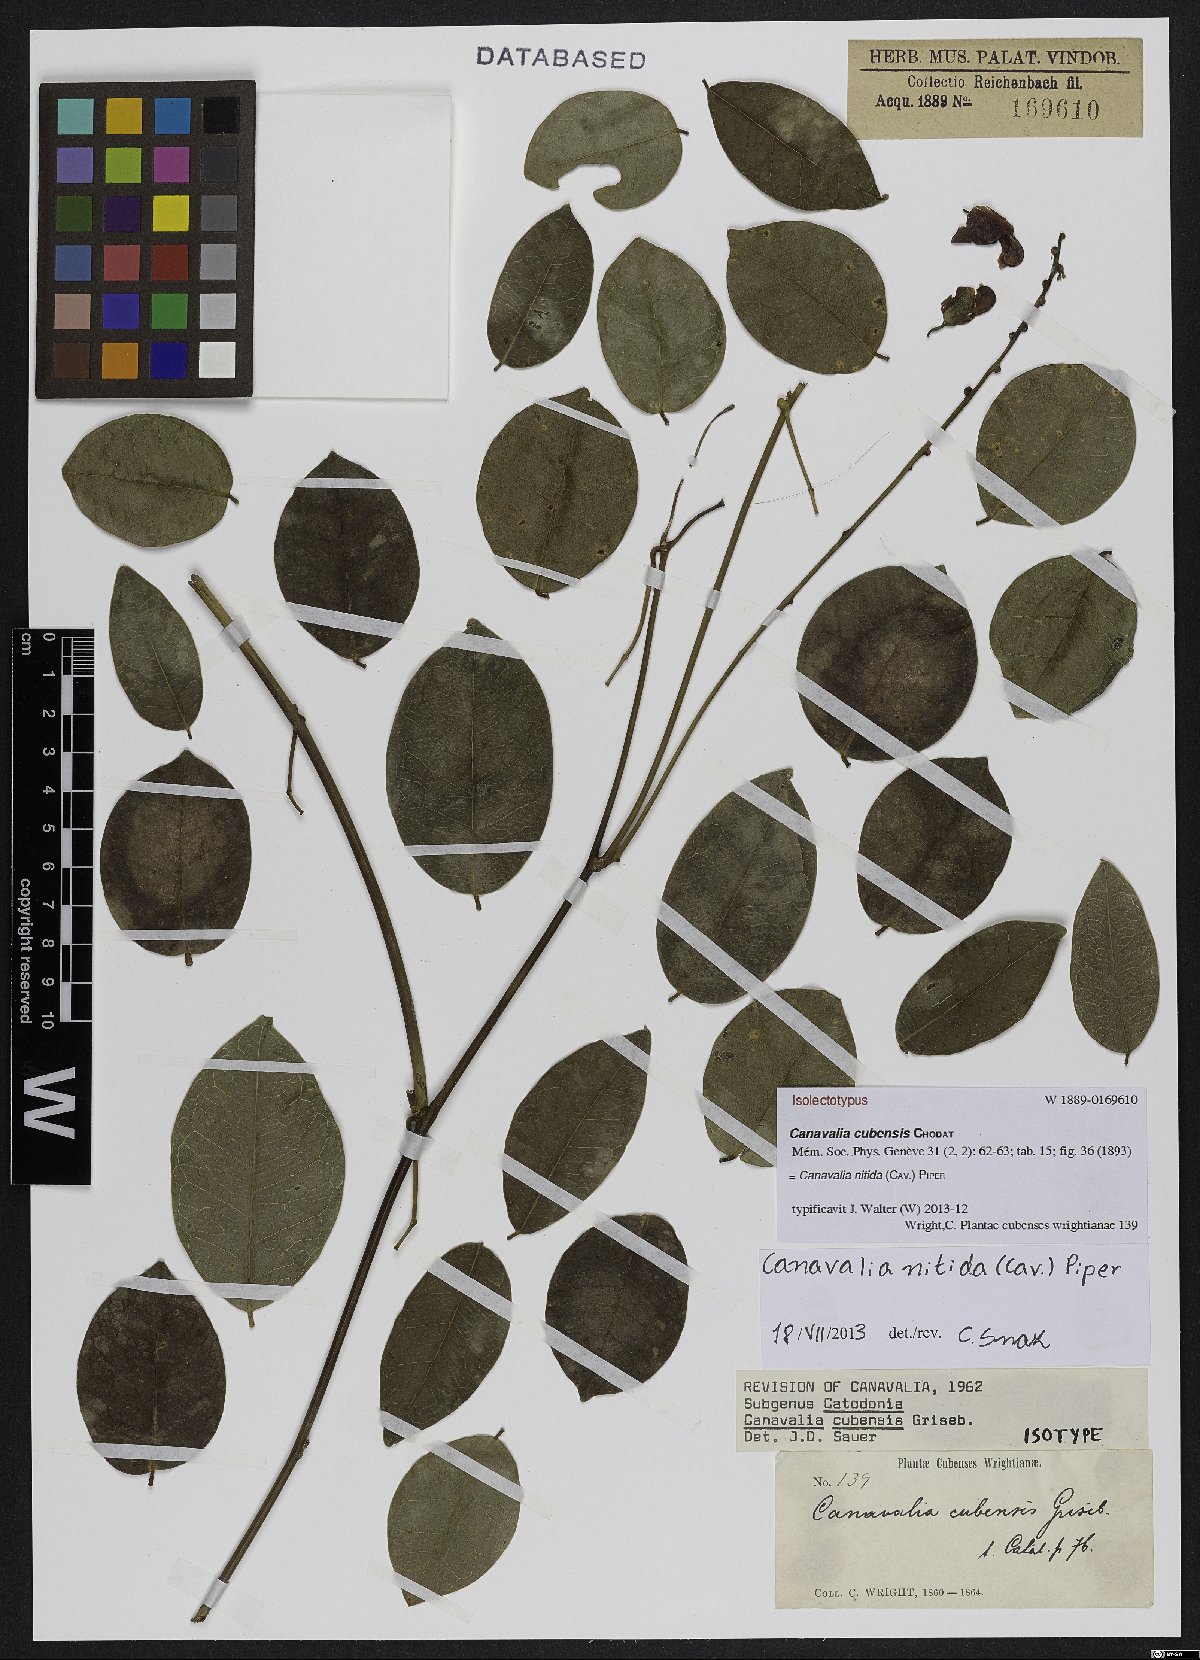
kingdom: Plantae
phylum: Tracheophyta
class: Magnoliopsida
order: Fabales
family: Fabaceae
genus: Canavalia
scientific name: Canavalia nitida
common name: Cathie's-bean
